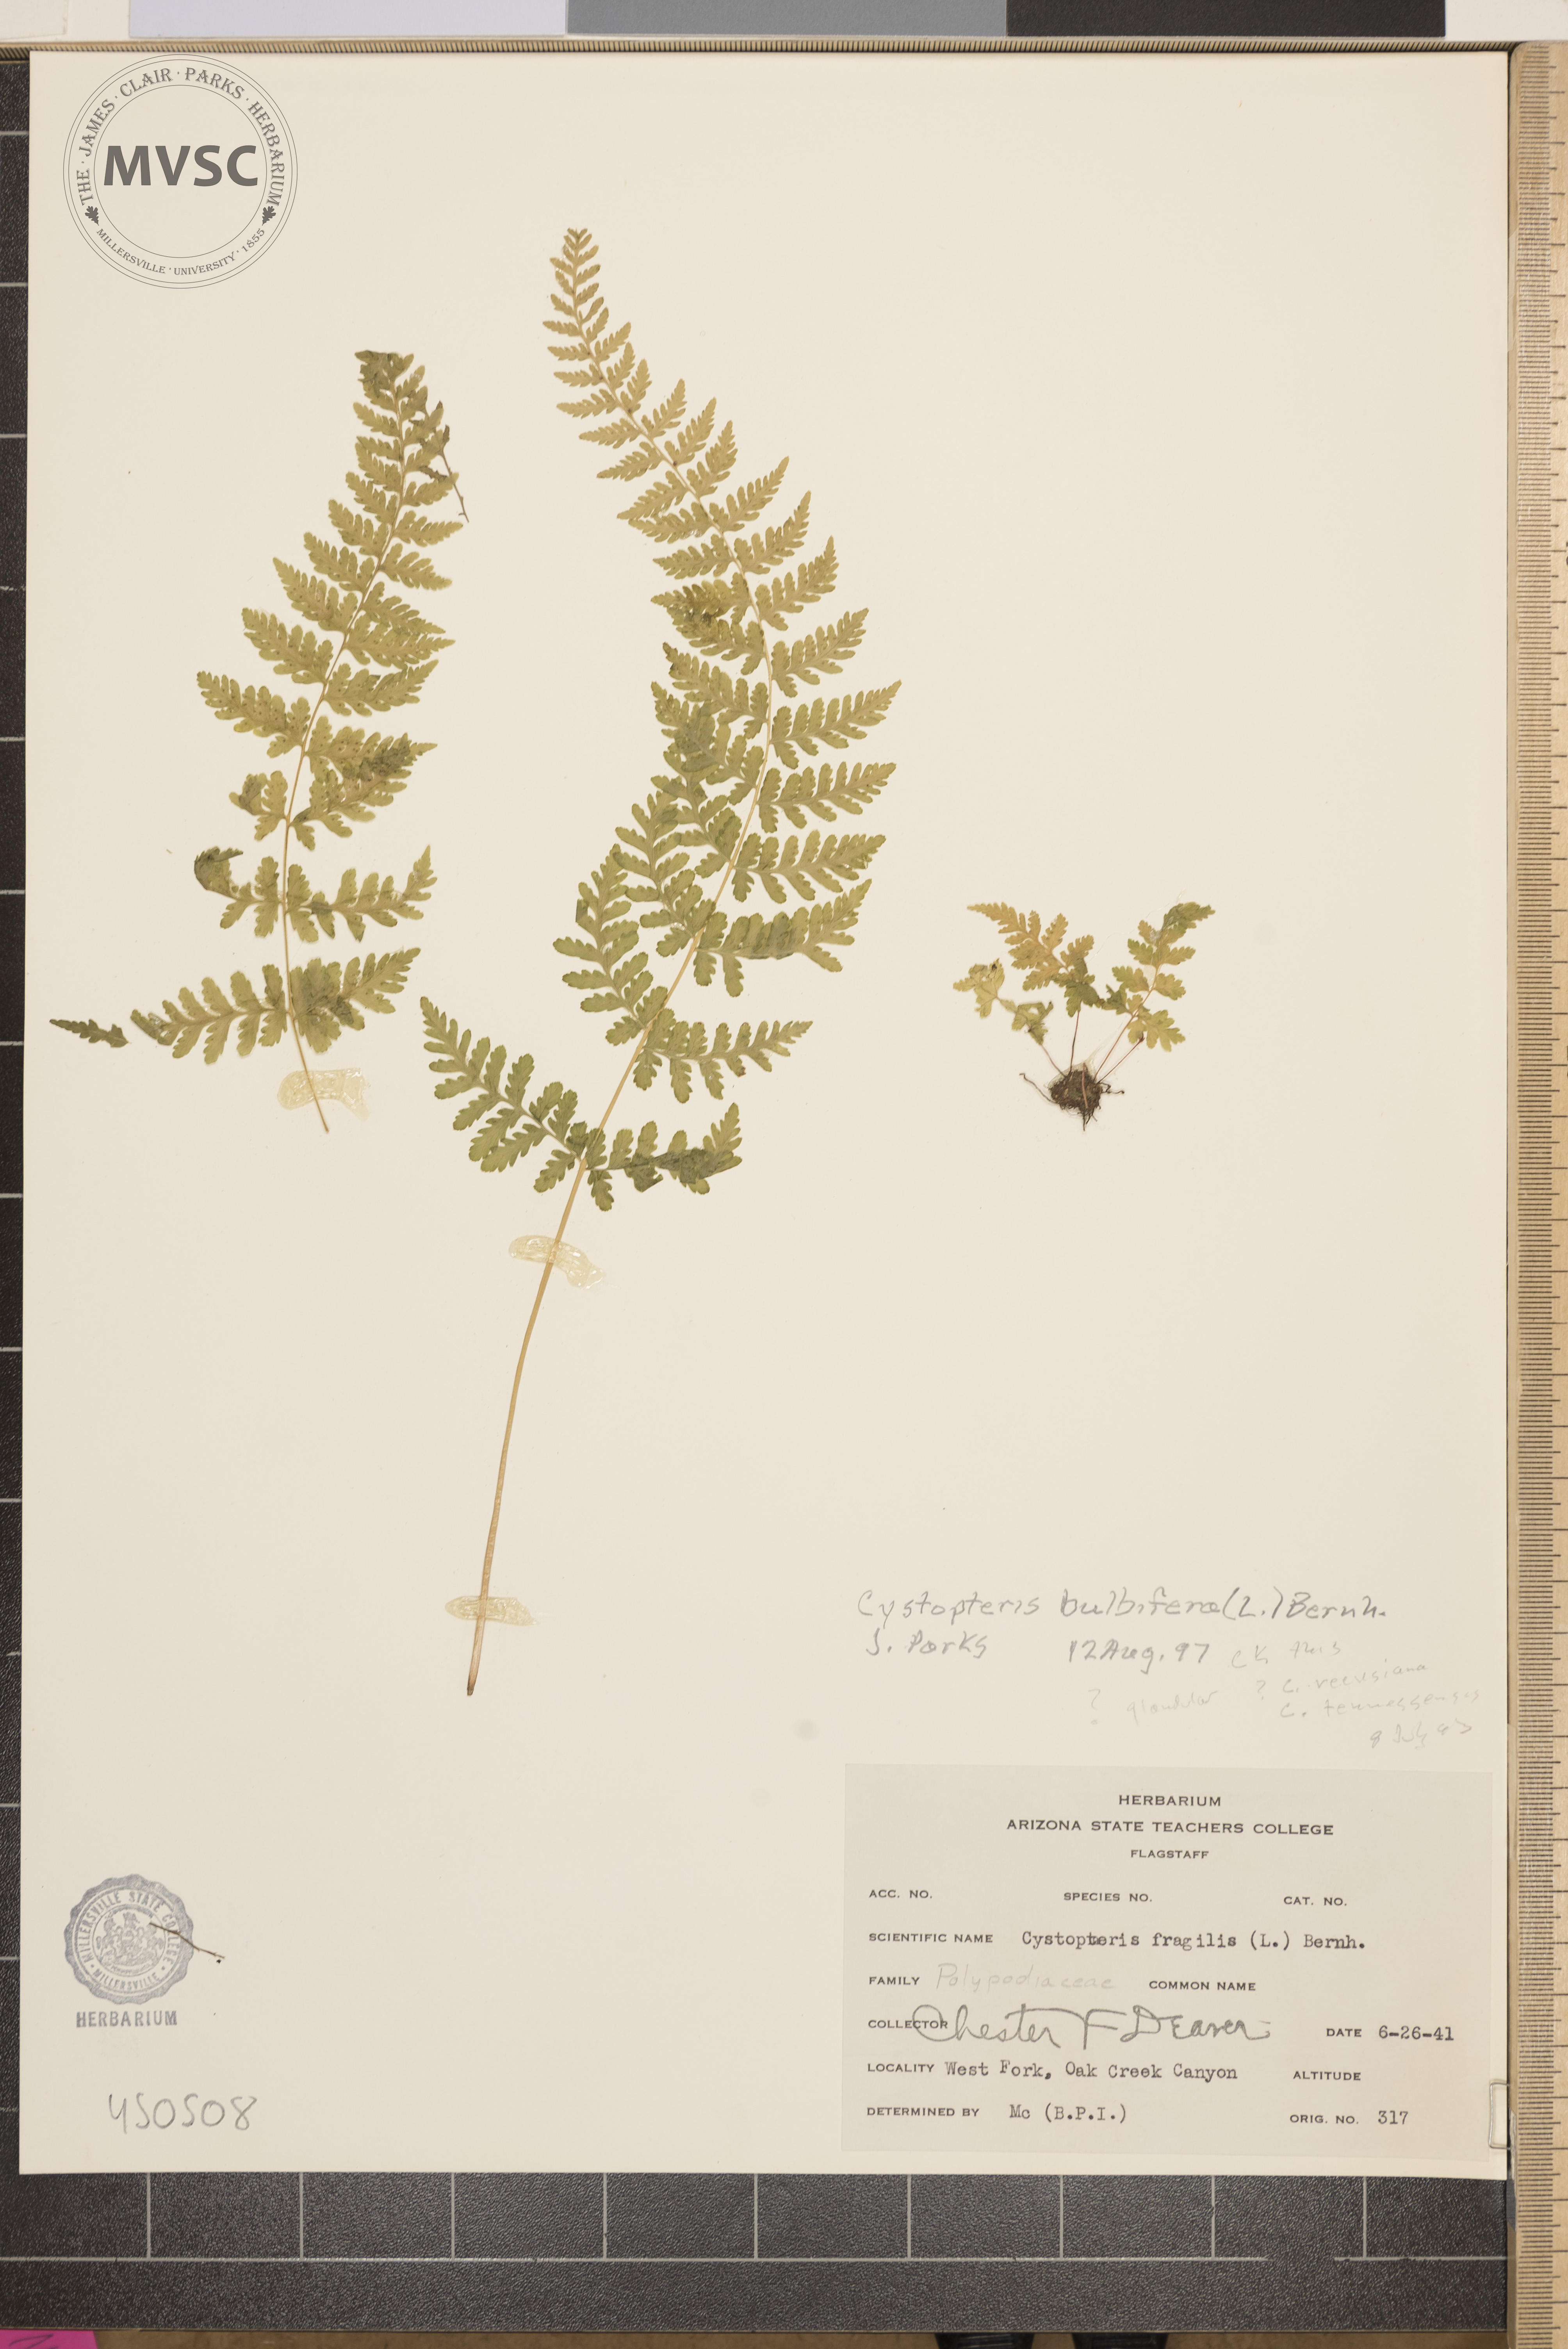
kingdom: Plantae
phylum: Tracheophyta
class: Polypodiopsida
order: Polypodiales
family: Cystopteridaceae
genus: Cystopteris
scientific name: Cystopteris bulbifera
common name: Bulblet bladder fern
